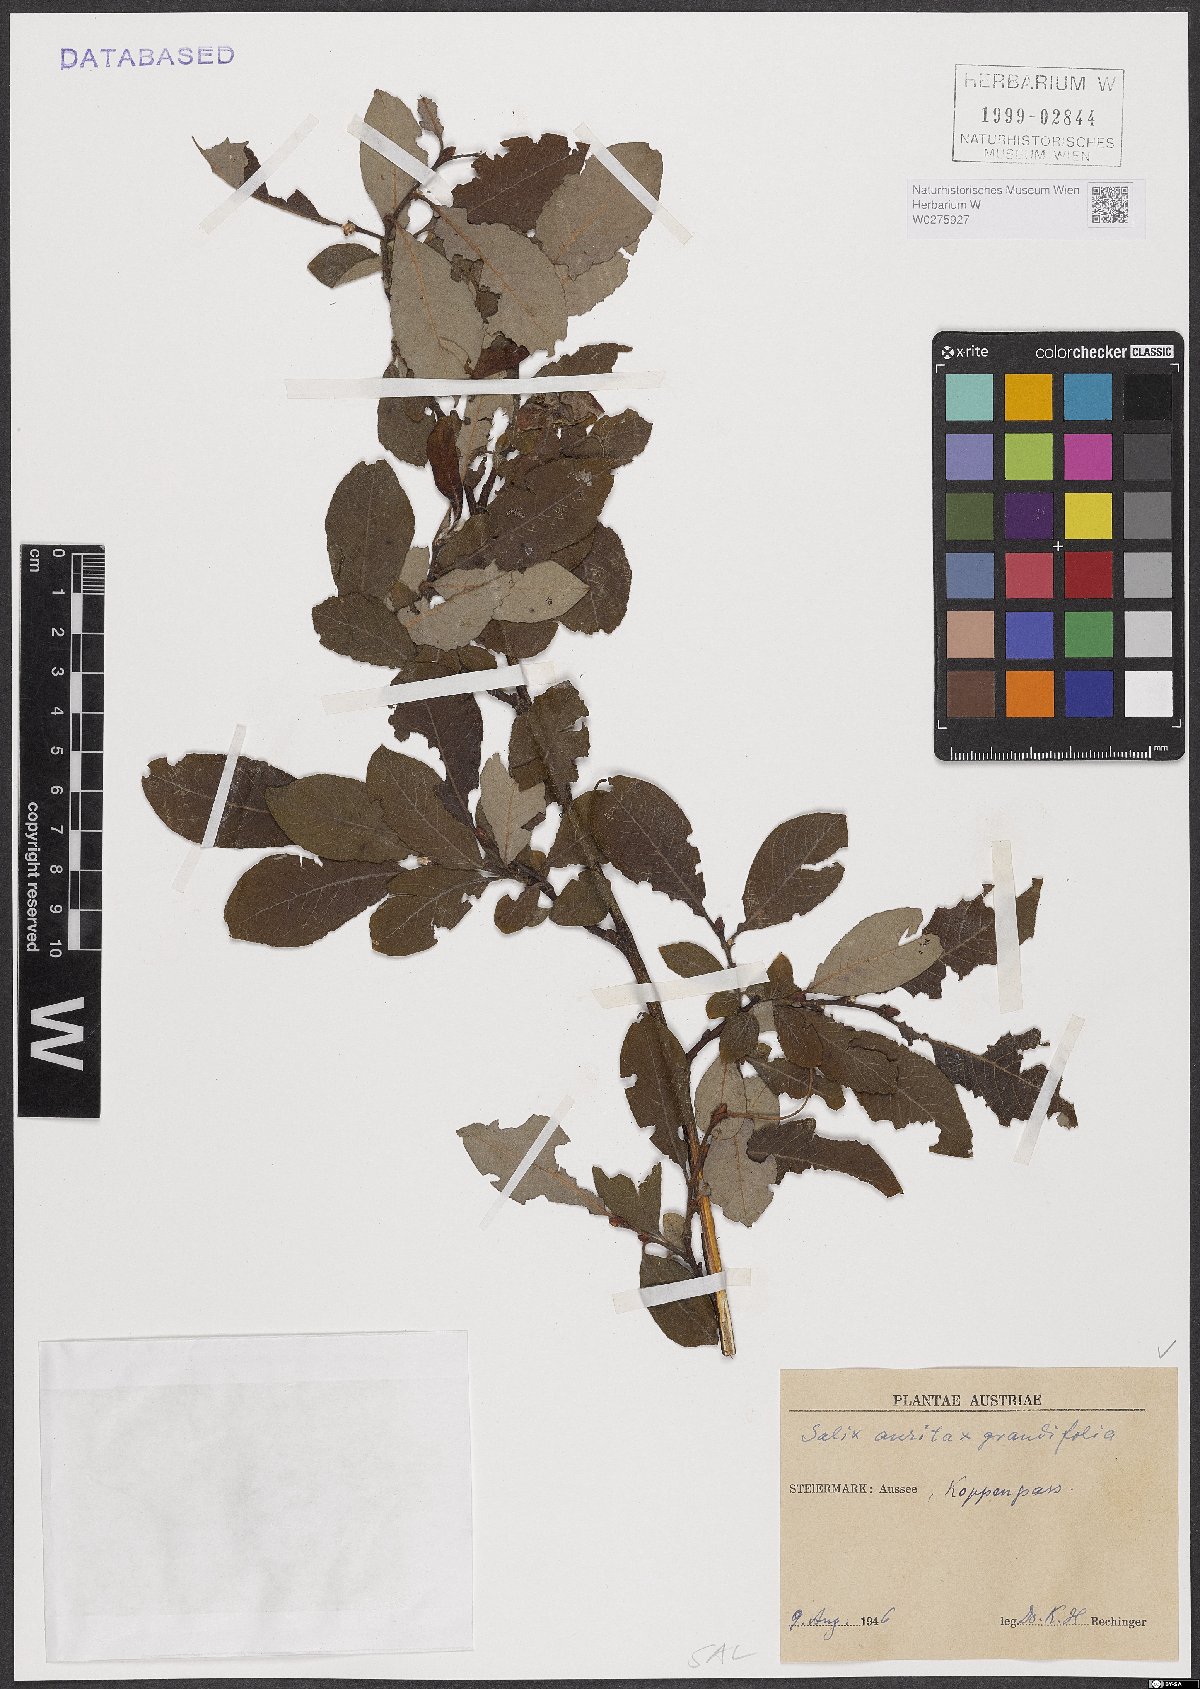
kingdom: Plantae
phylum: Tracheophyta
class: Magnoliopsida
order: Malpighiales
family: Salicaceae
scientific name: Salicaceae
